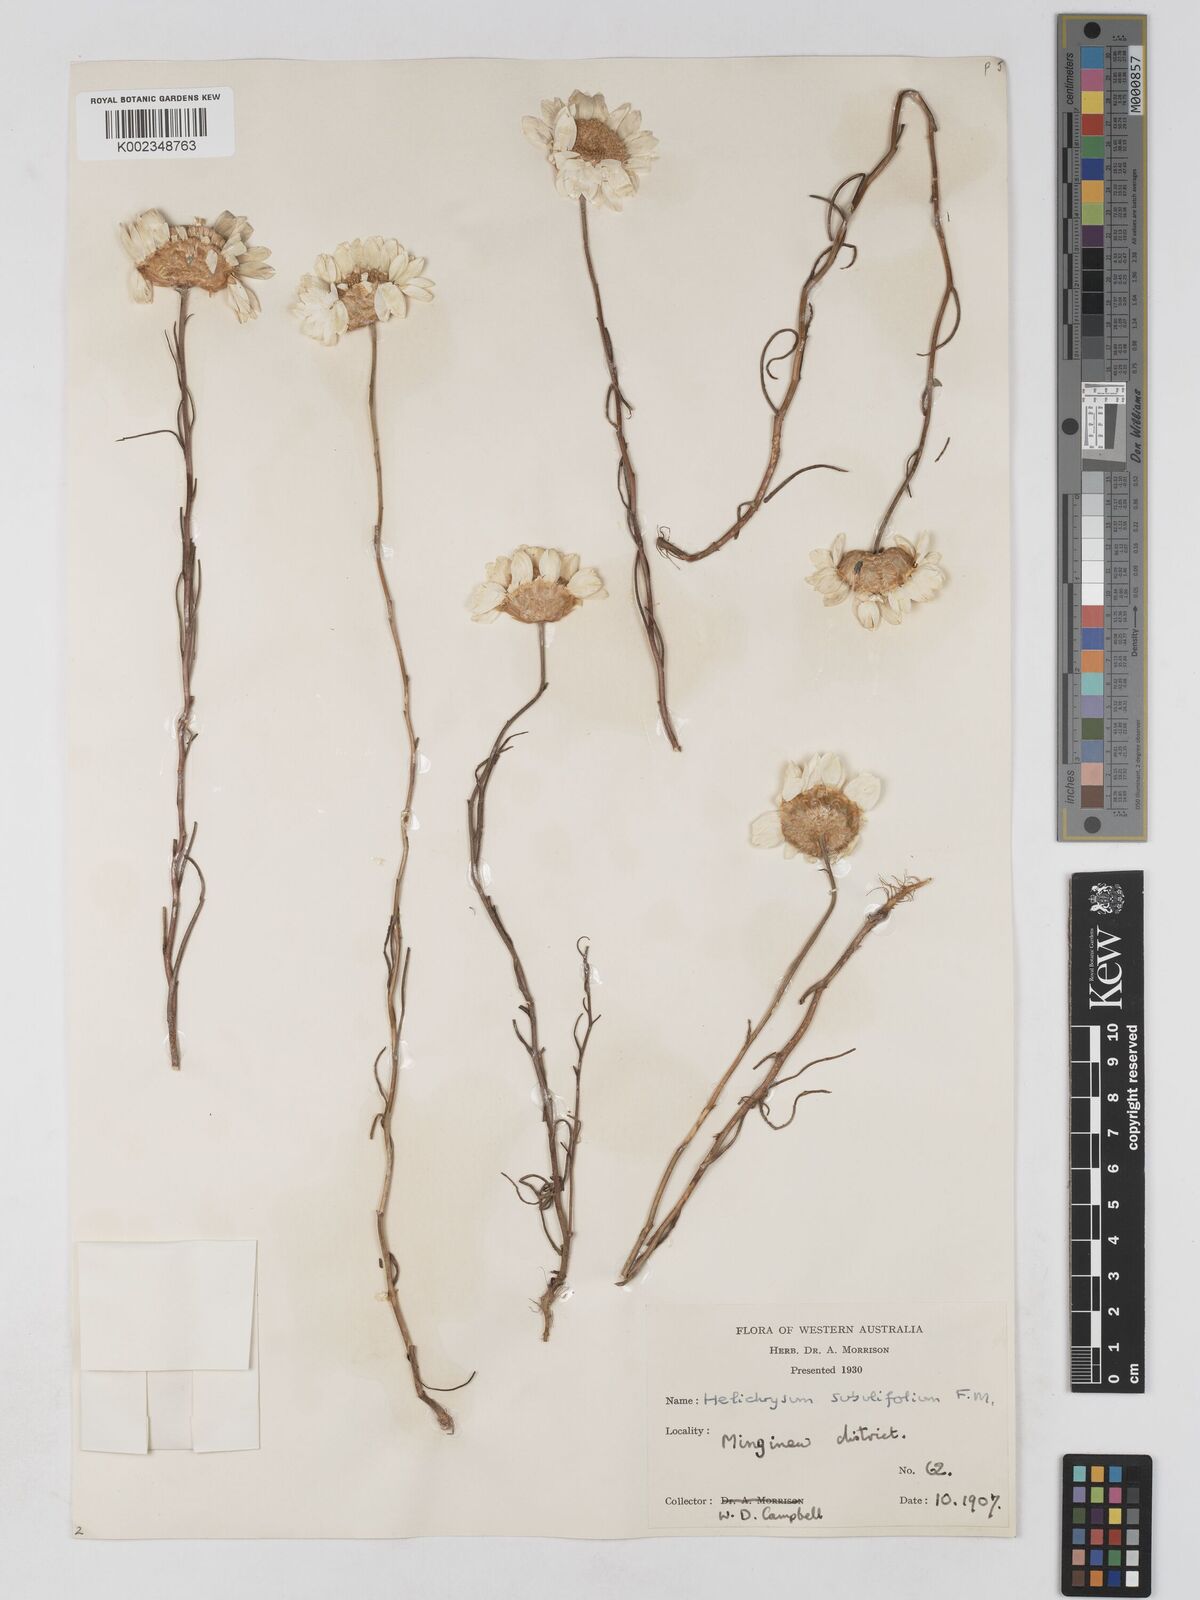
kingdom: Plantae
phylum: Tracheophyta
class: Magnoliopsida
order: Asterales
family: Asteraceae
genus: Schoenia
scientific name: Schoenia filifolia
